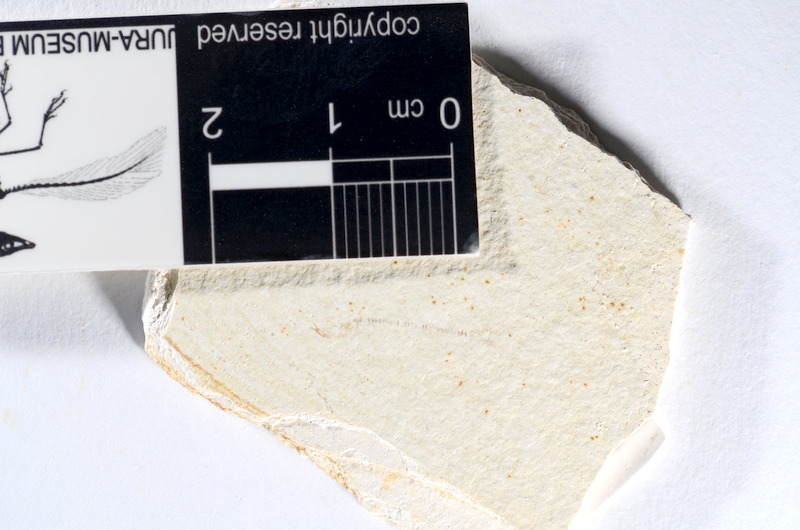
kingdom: Animalia
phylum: Chordata
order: Salmoniformes
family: Orthogonikleithridae
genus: Orthogonikleithrus
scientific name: Orthogonikleithrus hoelli
